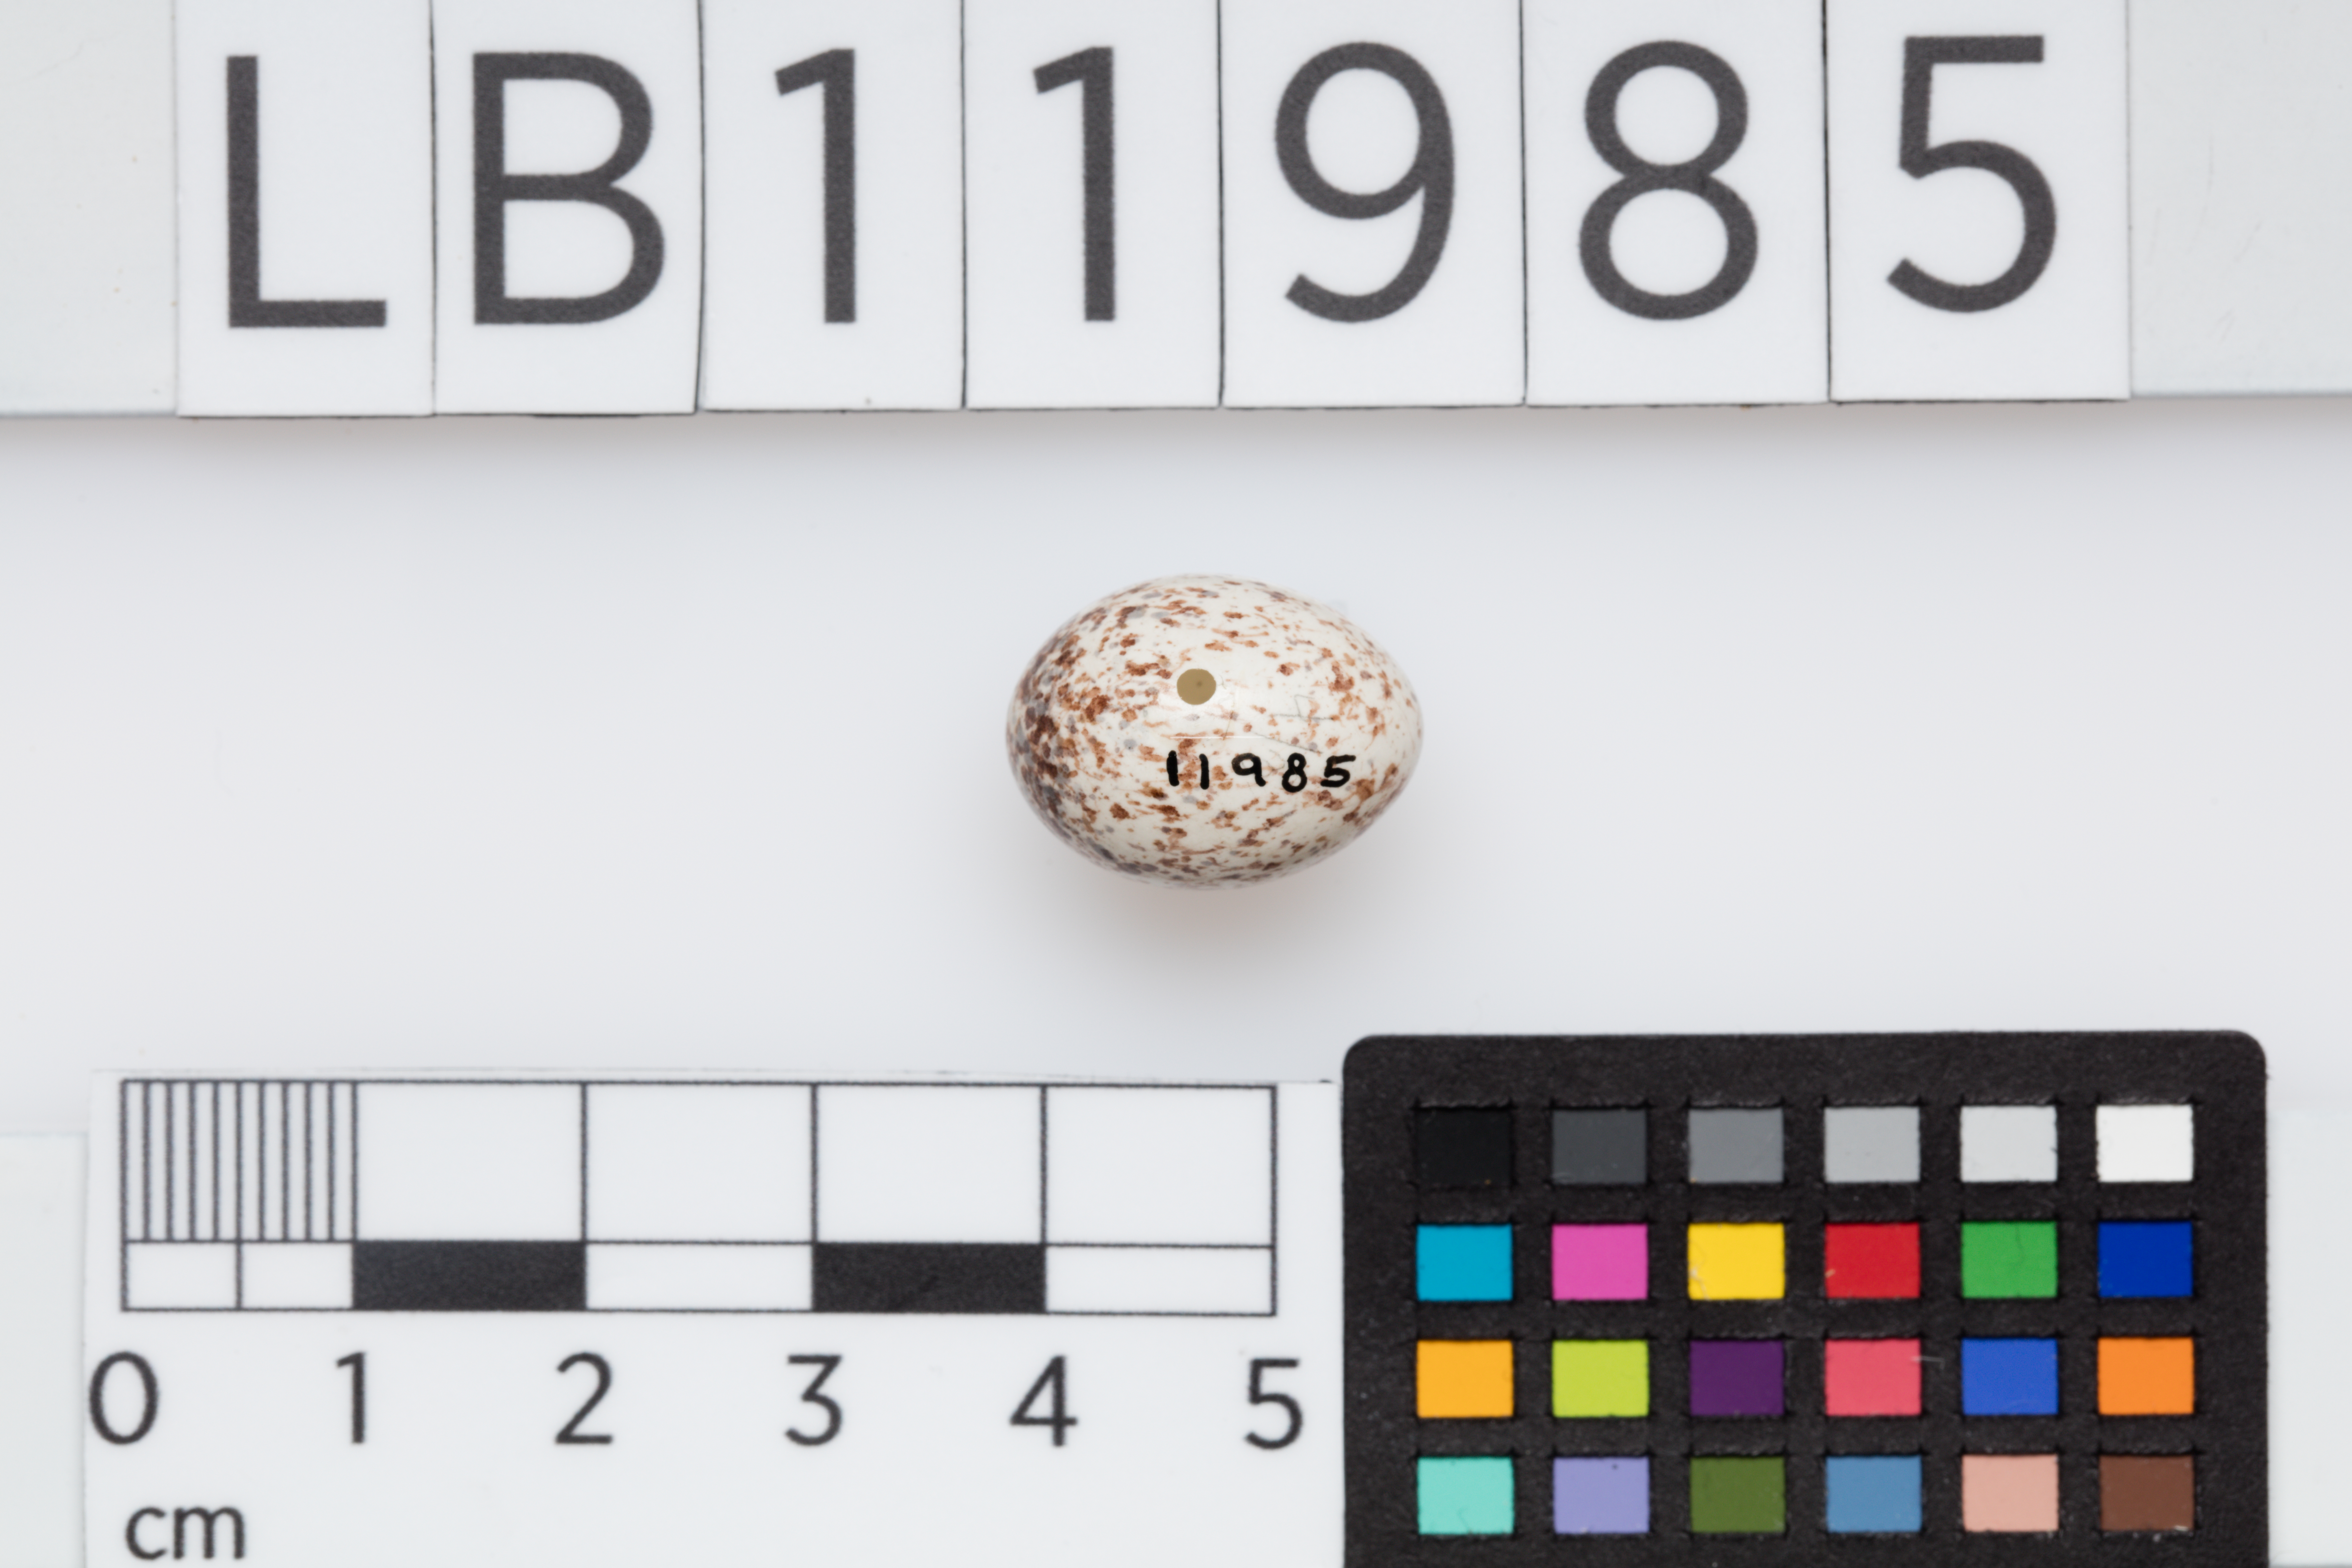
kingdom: Animalia
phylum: Chordata
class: Aves
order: Passeriformes
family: Parulidae
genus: Protonotaria
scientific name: Protonotaria citrea
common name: Prothonotary warbler
